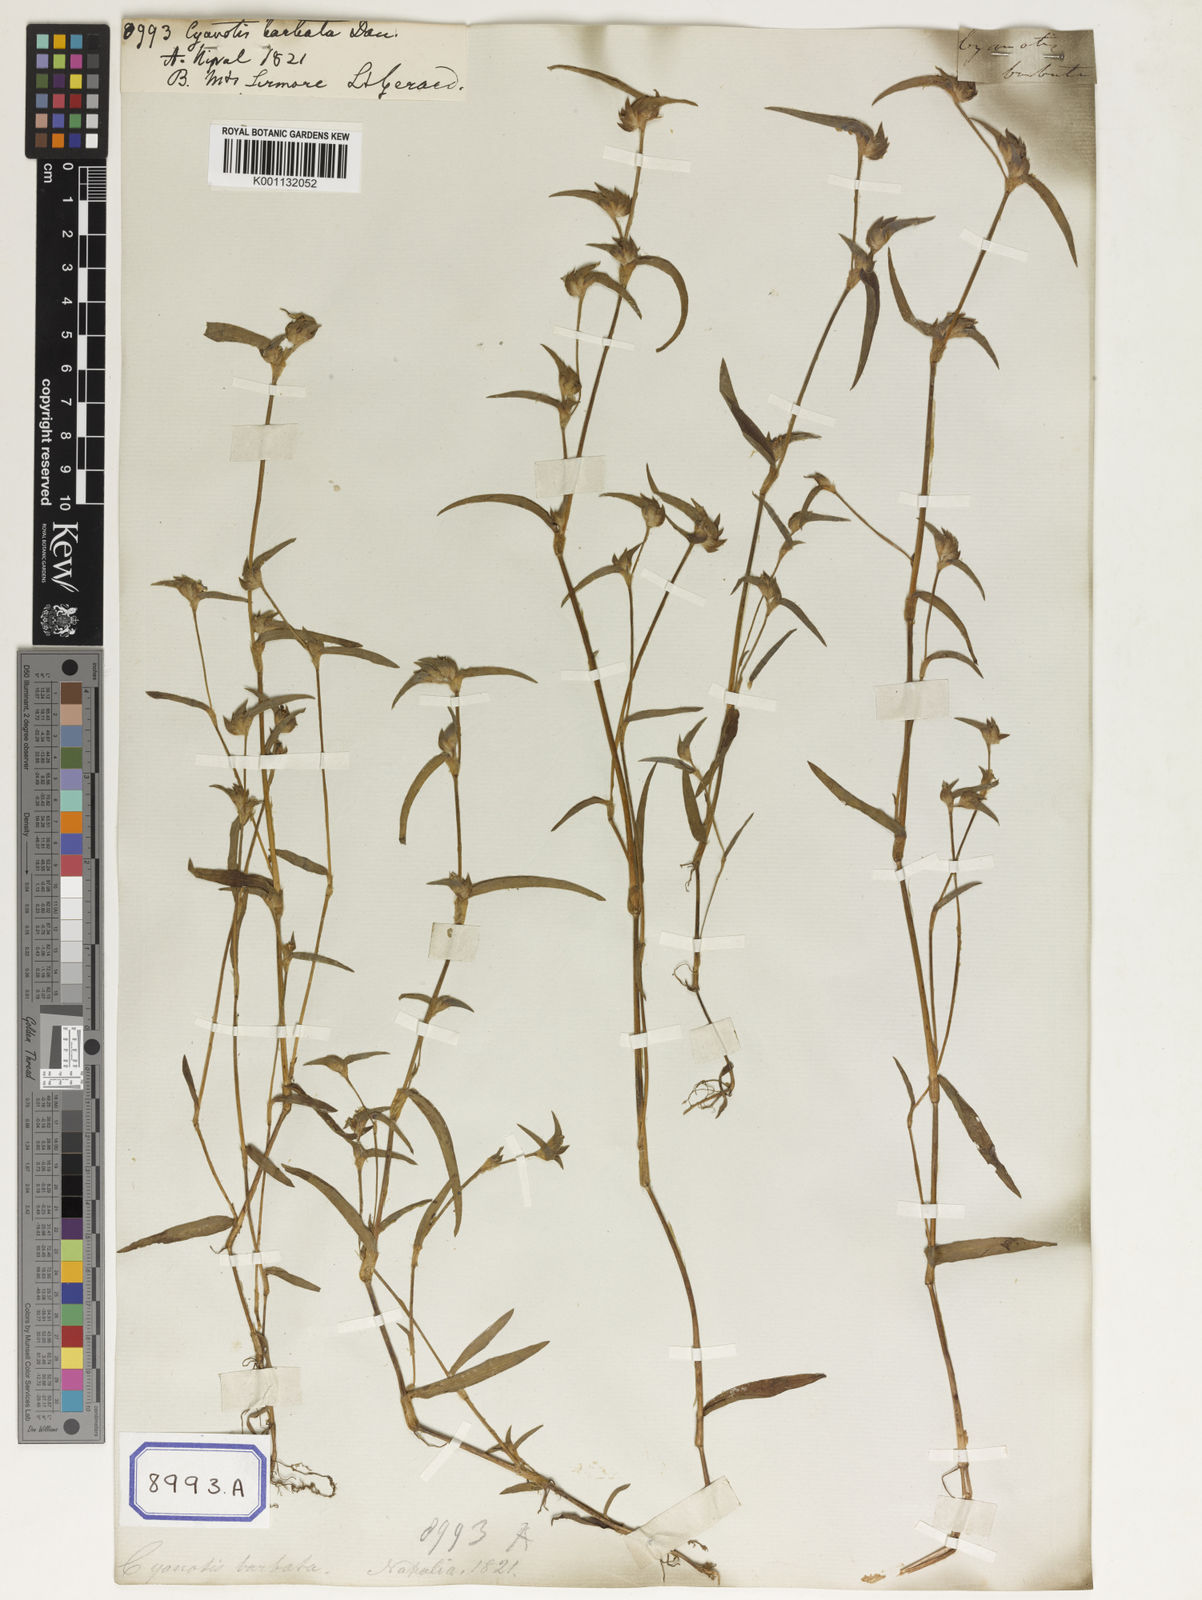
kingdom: Plantae
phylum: Tracheophyta
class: Liliopsida
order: Commelinales
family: Commelinaceae
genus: Cyanotis
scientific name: Cyanotis vaga
